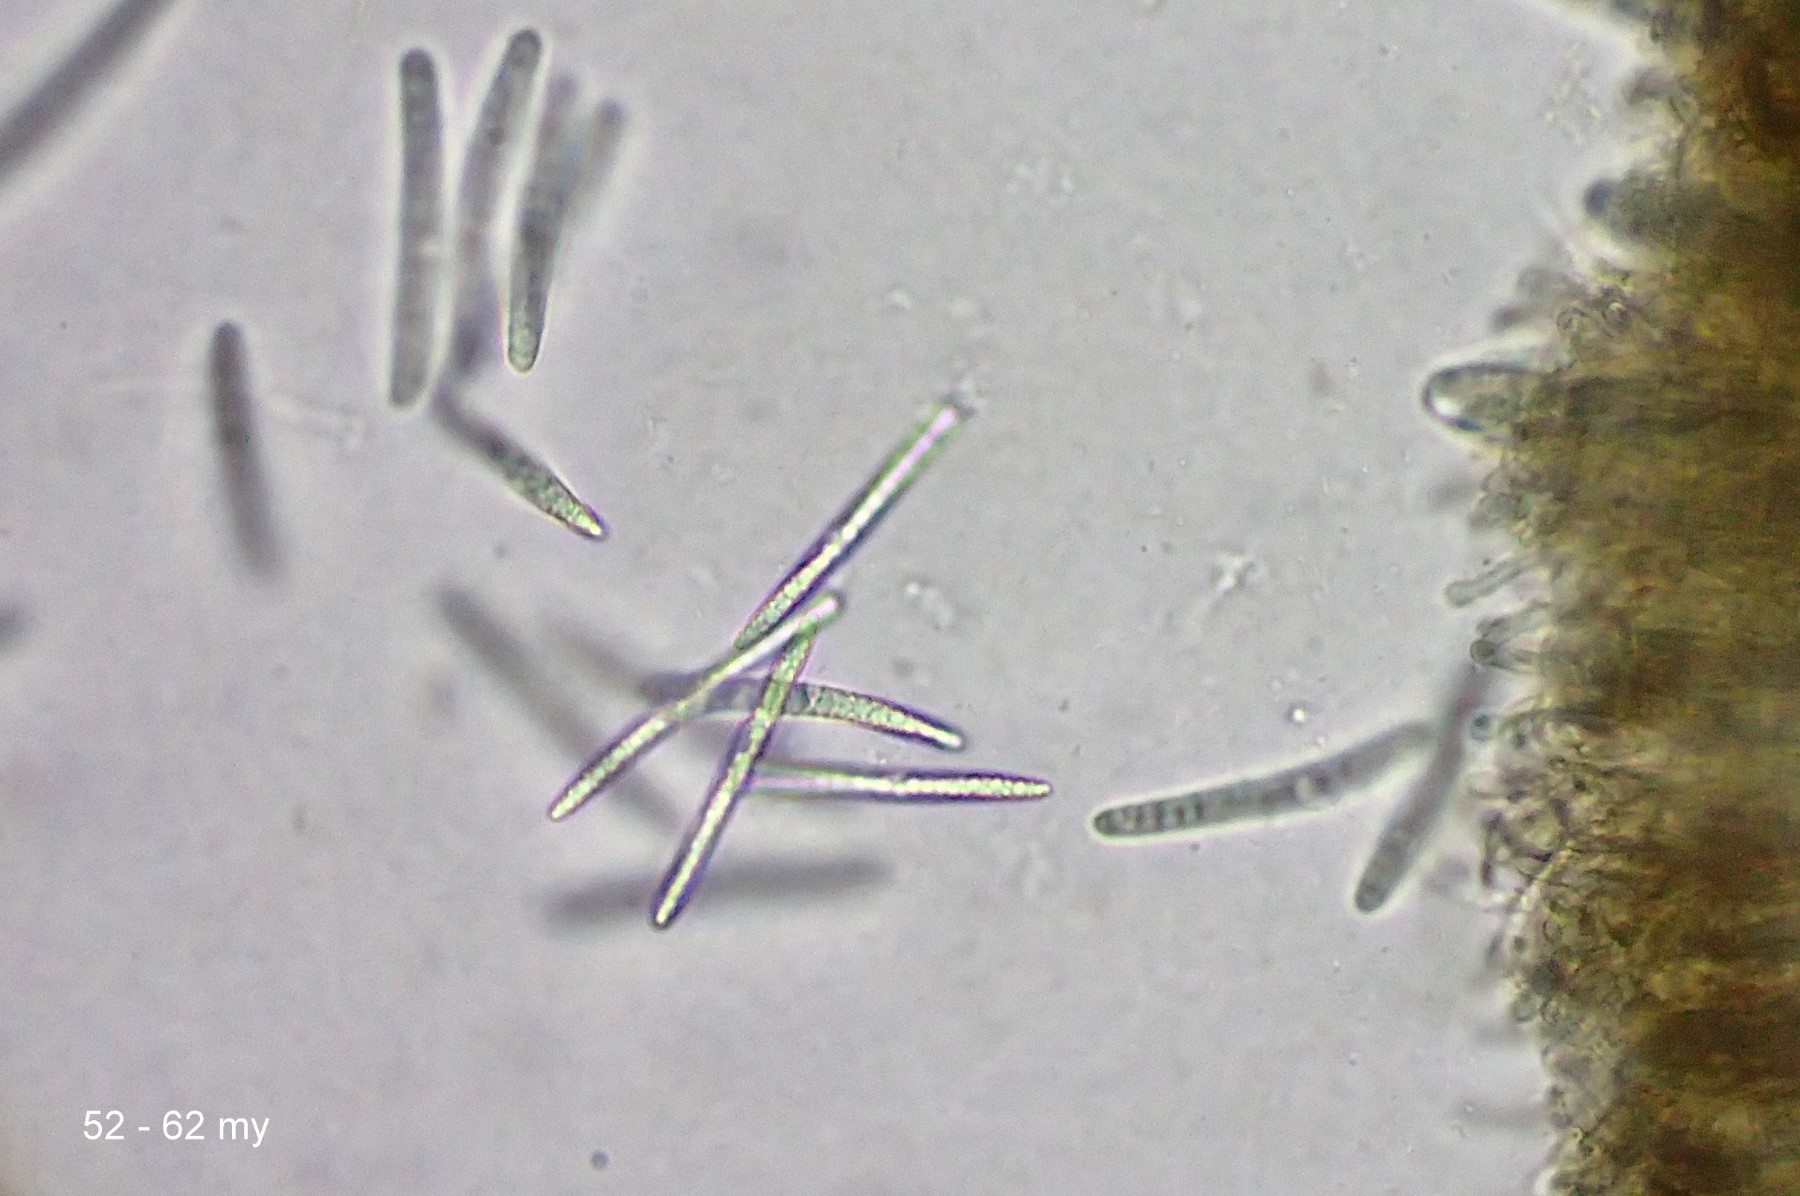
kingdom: Fungi
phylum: Ascomycota
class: Geoglossomycetes
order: Geoglossales
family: Geoglossaceae
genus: Hemileucoglossum
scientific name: Hemileucoglossum elongatum
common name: småsporet jordtunge
